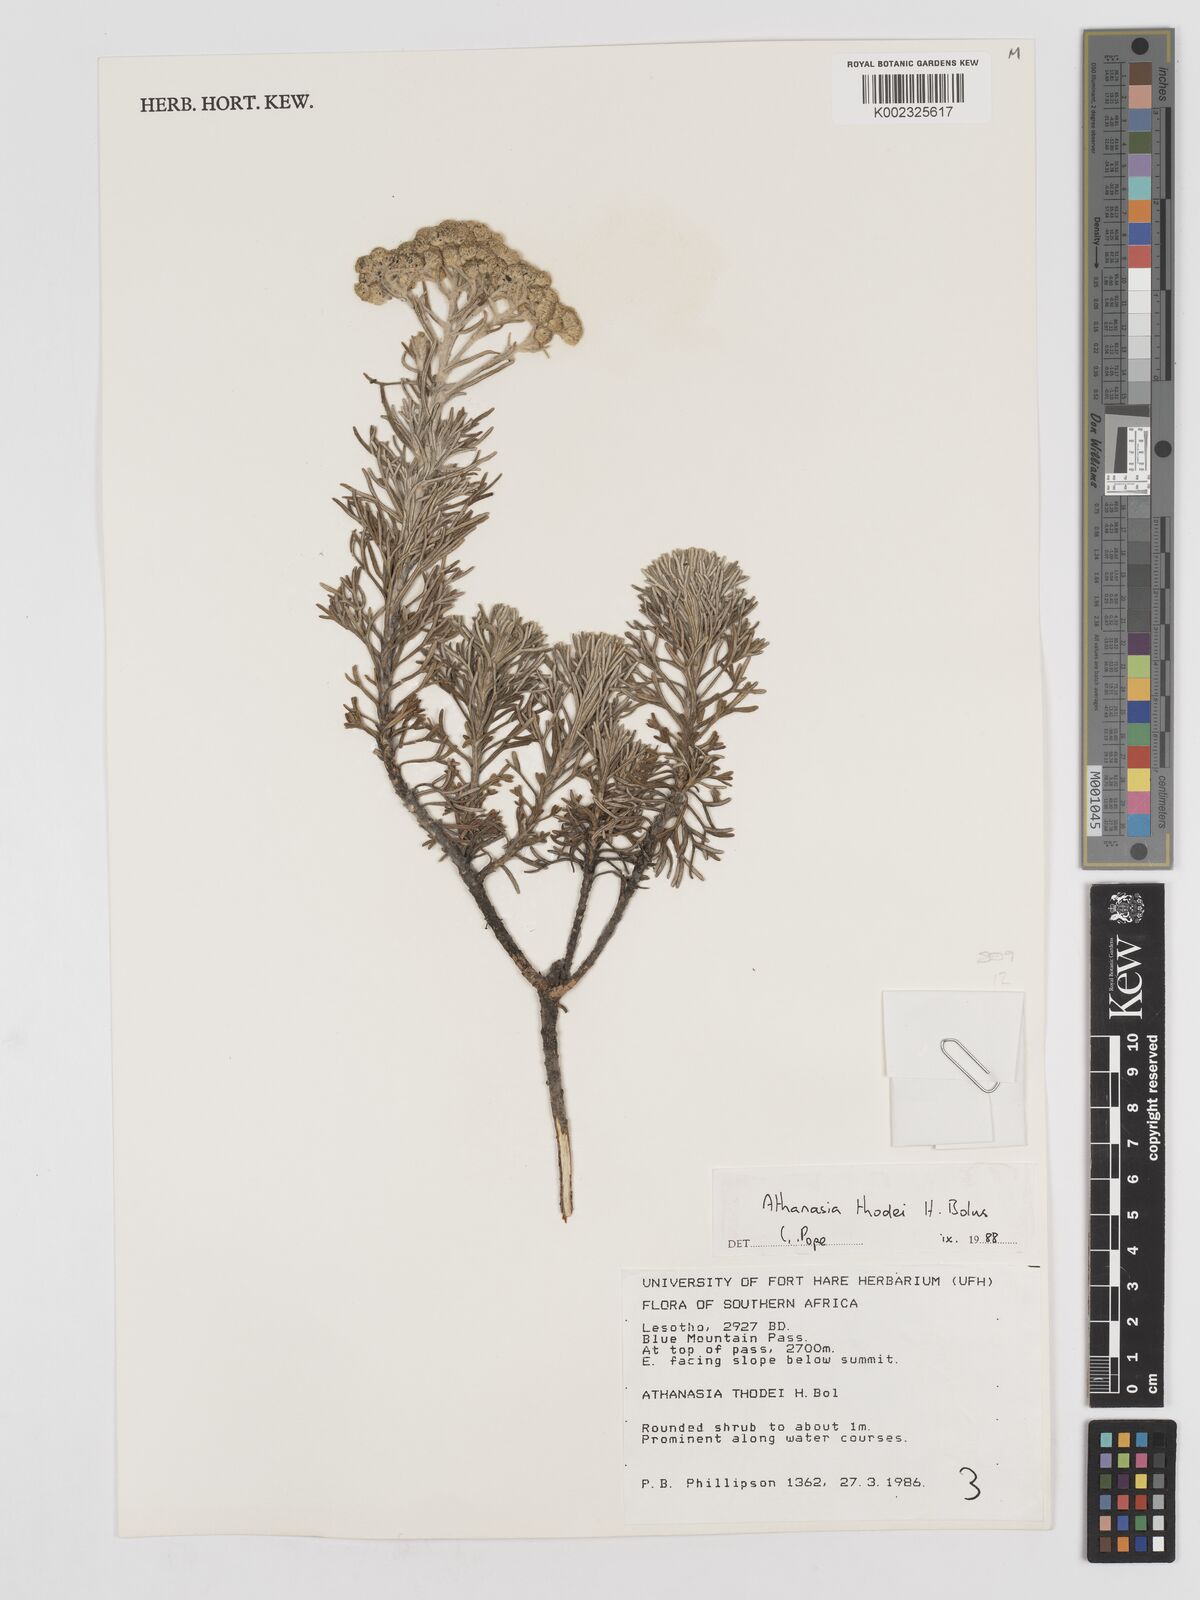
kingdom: Plantae
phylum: Tracheophyta
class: Magnoliopsida
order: Asterales
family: Asteraceae
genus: Inulanthera
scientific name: Inulanthera thodei
